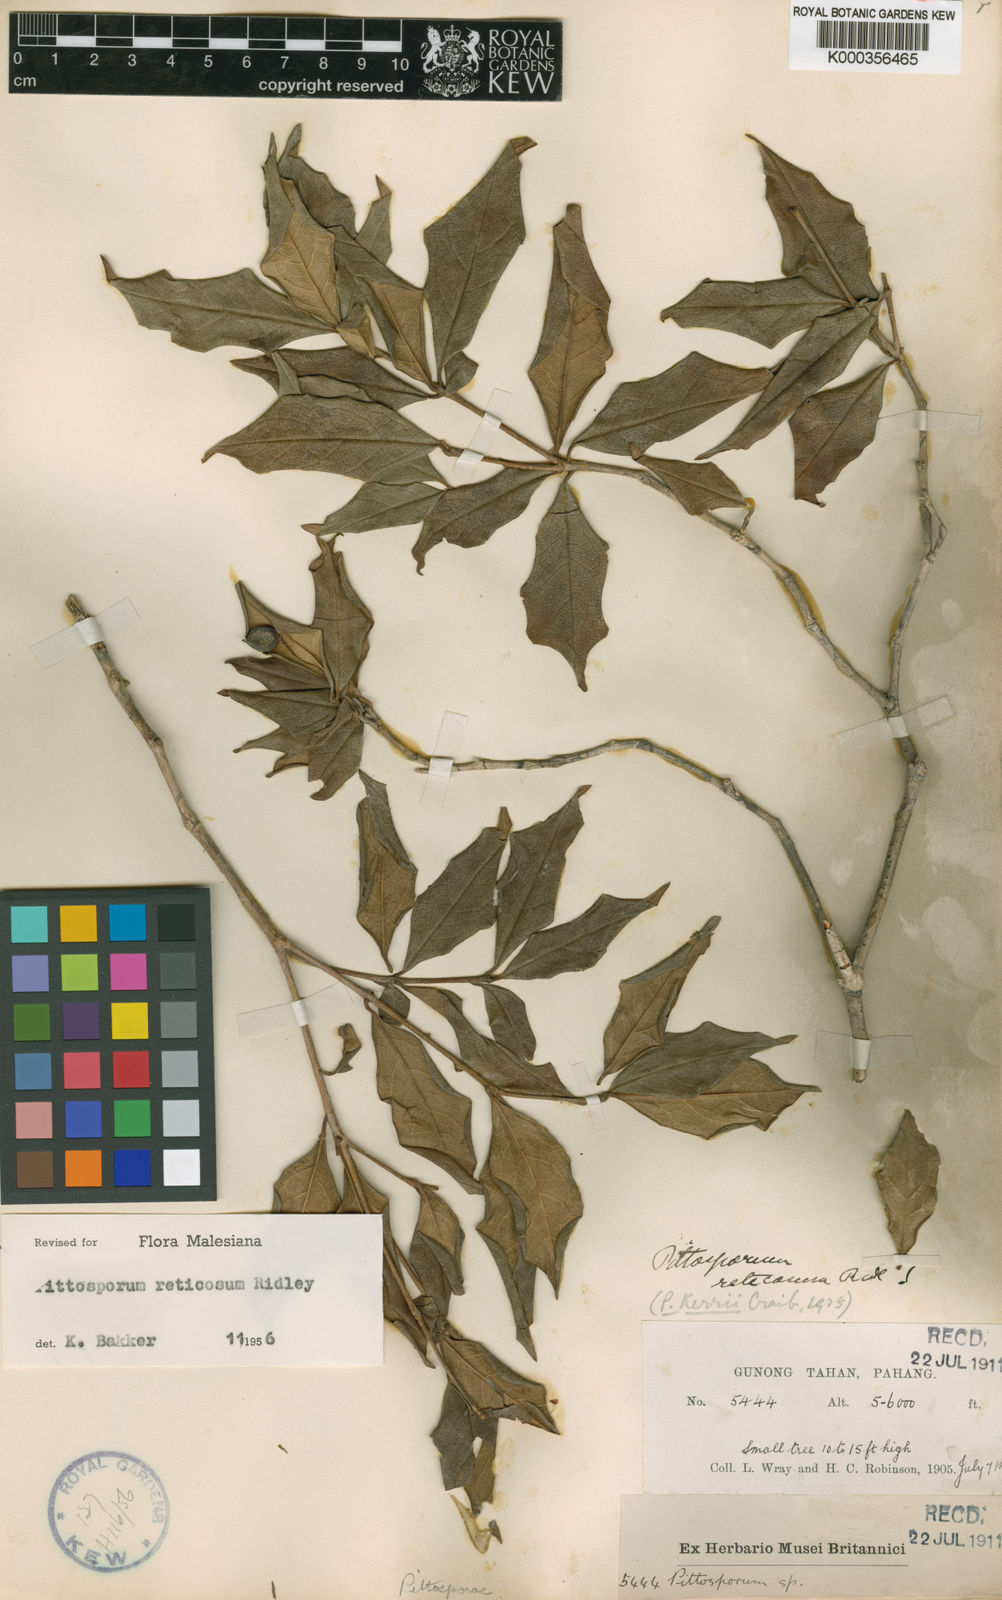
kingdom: Plantae
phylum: Tracheophyta
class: Magnoliopsida
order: Apiales
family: Pittosporaceae
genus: Pittosporum
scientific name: Pittosporum reticosum
